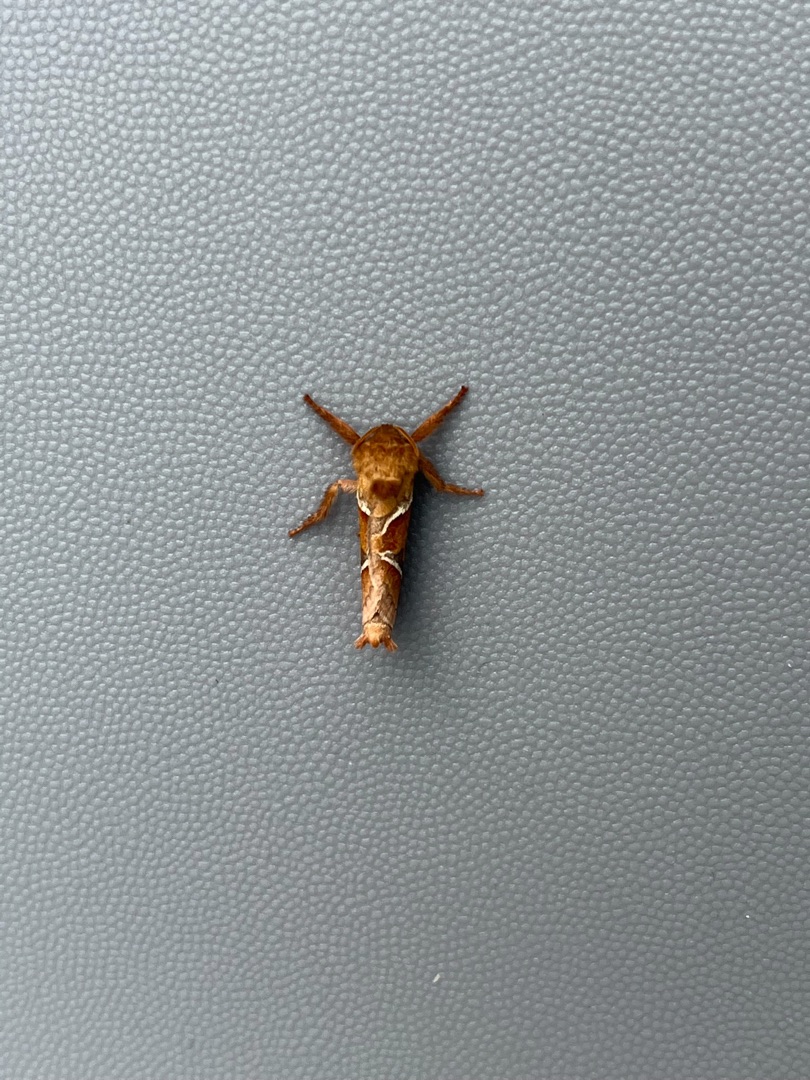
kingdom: Animalia
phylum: Arthropoda
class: Insecta
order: Lepidoptera
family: Hepialidae
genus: Triodia
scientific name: Triodia sylvina
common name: Skræpperodæder
